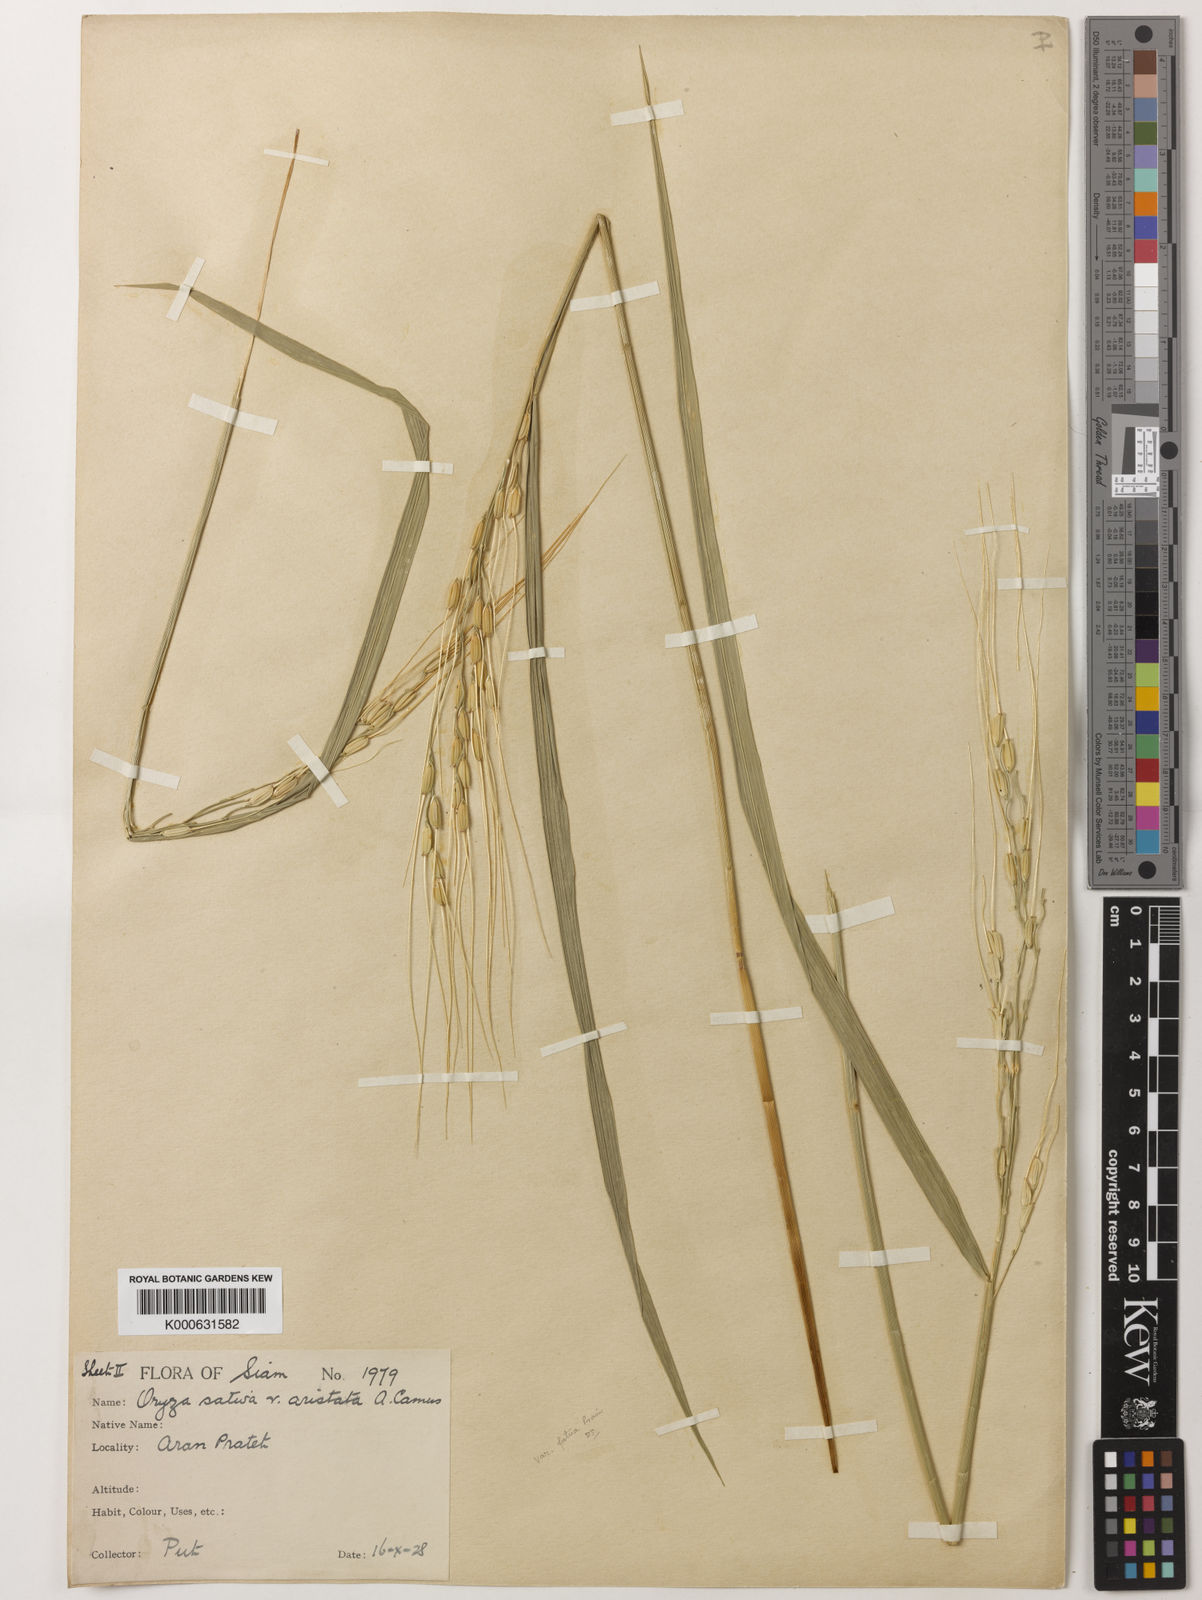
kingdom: Plantae
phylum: Tracheophyta
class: Liliopsida
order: Poales
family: Poaceae
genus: Oryza
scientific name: Oryza sativa
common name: Rice
